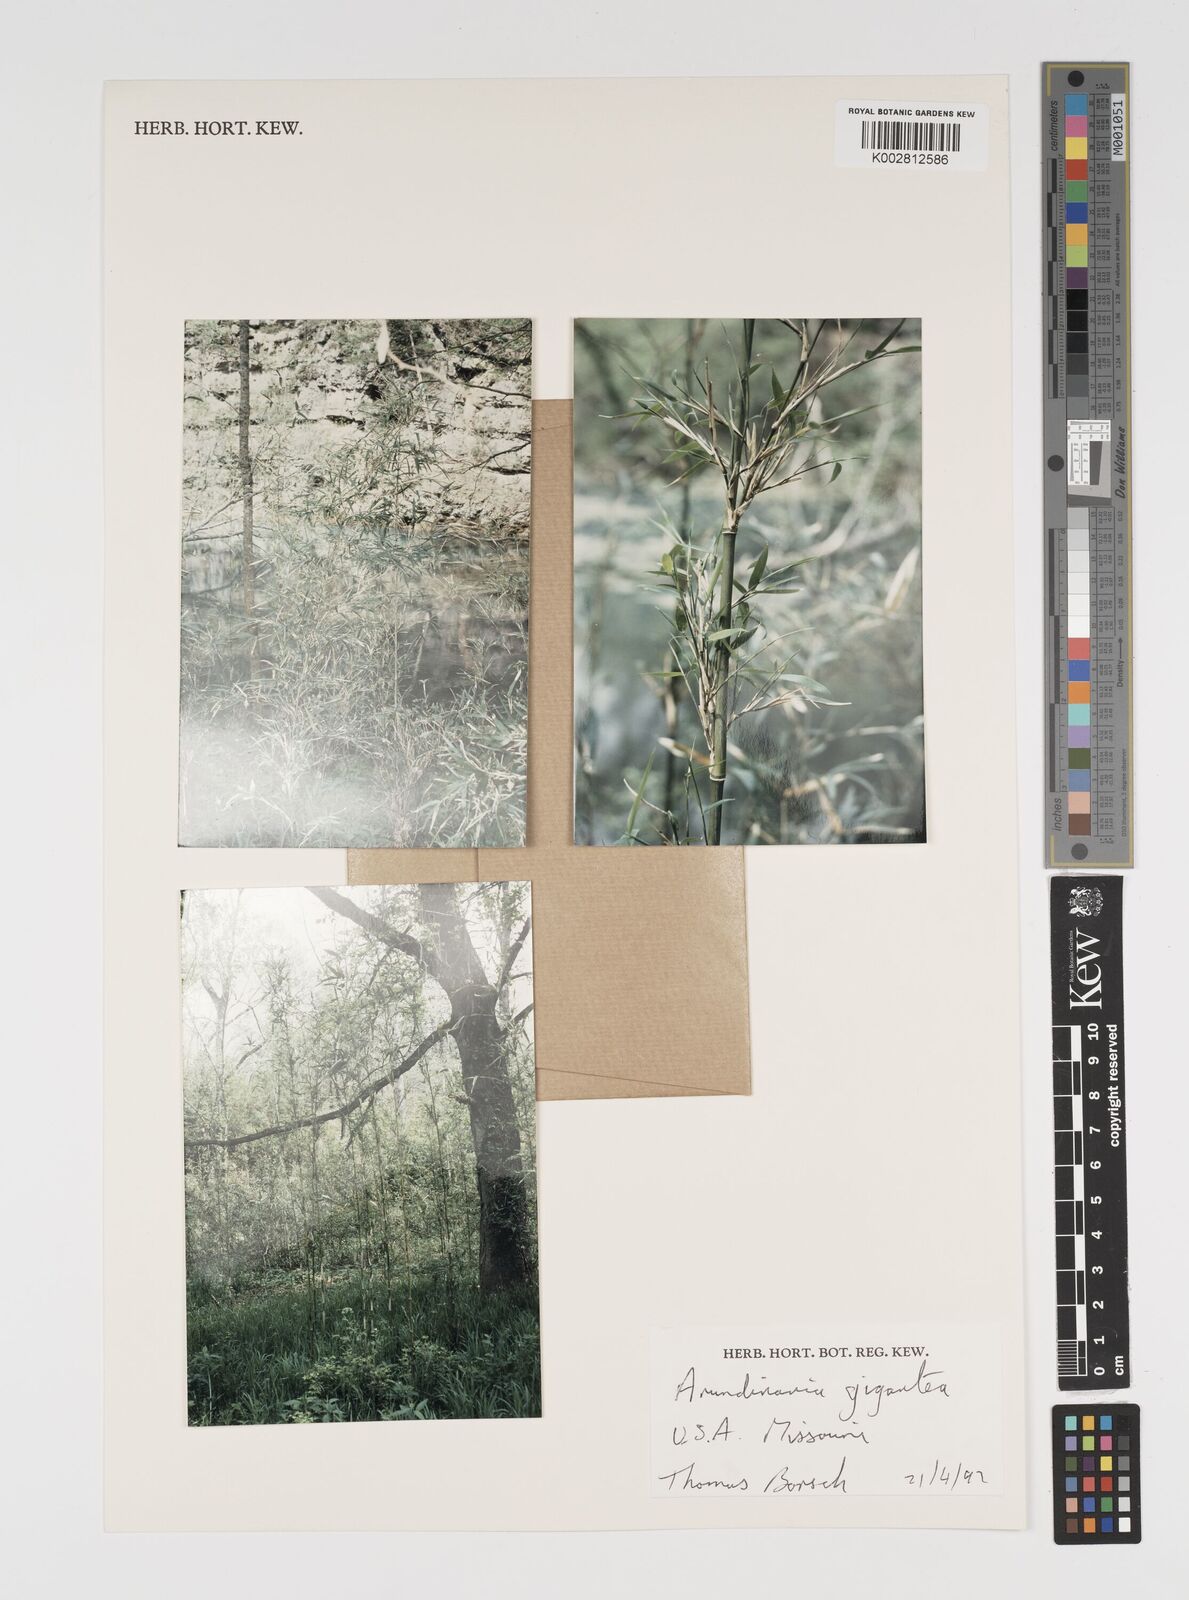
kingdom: Plantae
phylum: Tracheophyta
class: Liliopsida
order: Poales
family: Poaceae
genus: Arundinaria
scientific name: Arundinaria gigantea
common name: Giant cane
